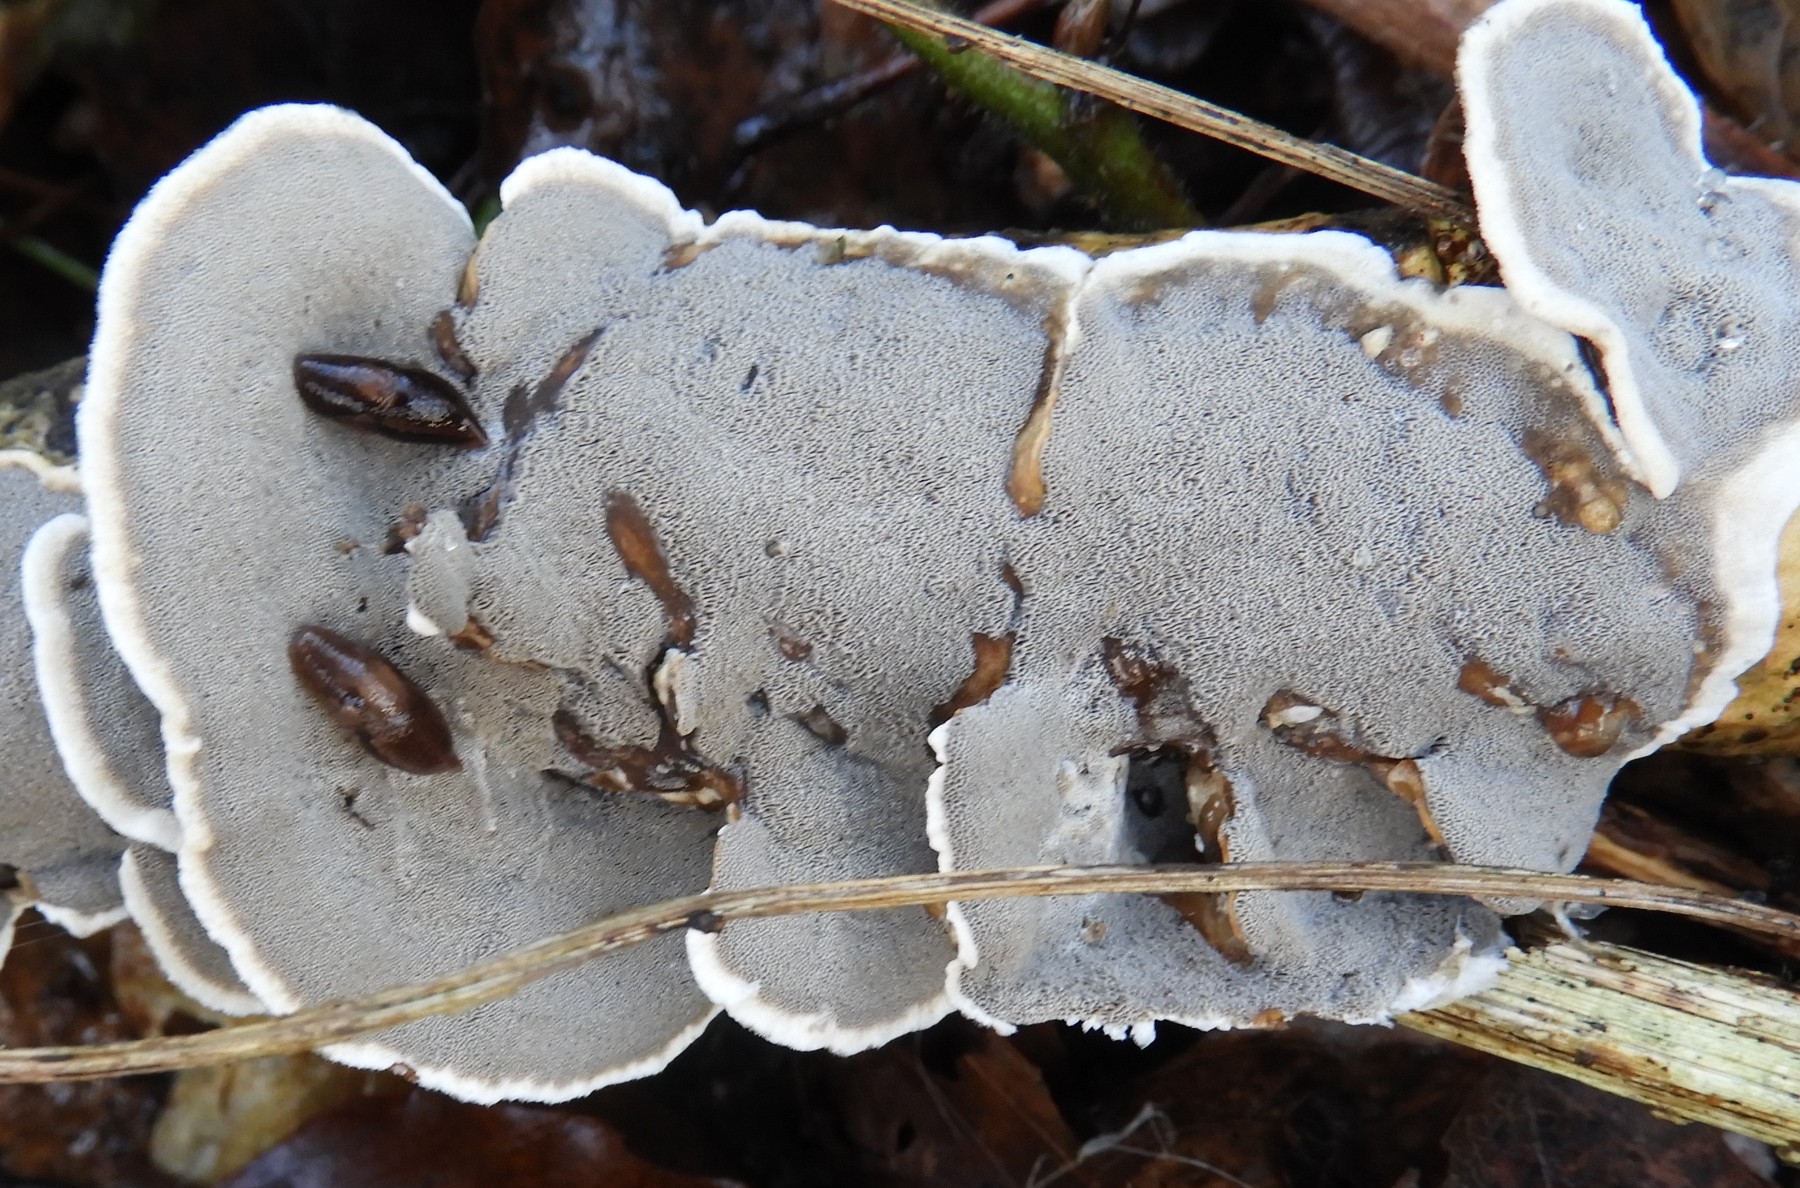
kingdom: Fungi
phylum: Basidiomycota
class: Agaricomycetes
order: Polyporales
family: Phanerochaetaceae
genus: Bjerkandera
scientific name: Bjerkandera adusta
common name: sveden sodporesvamp
